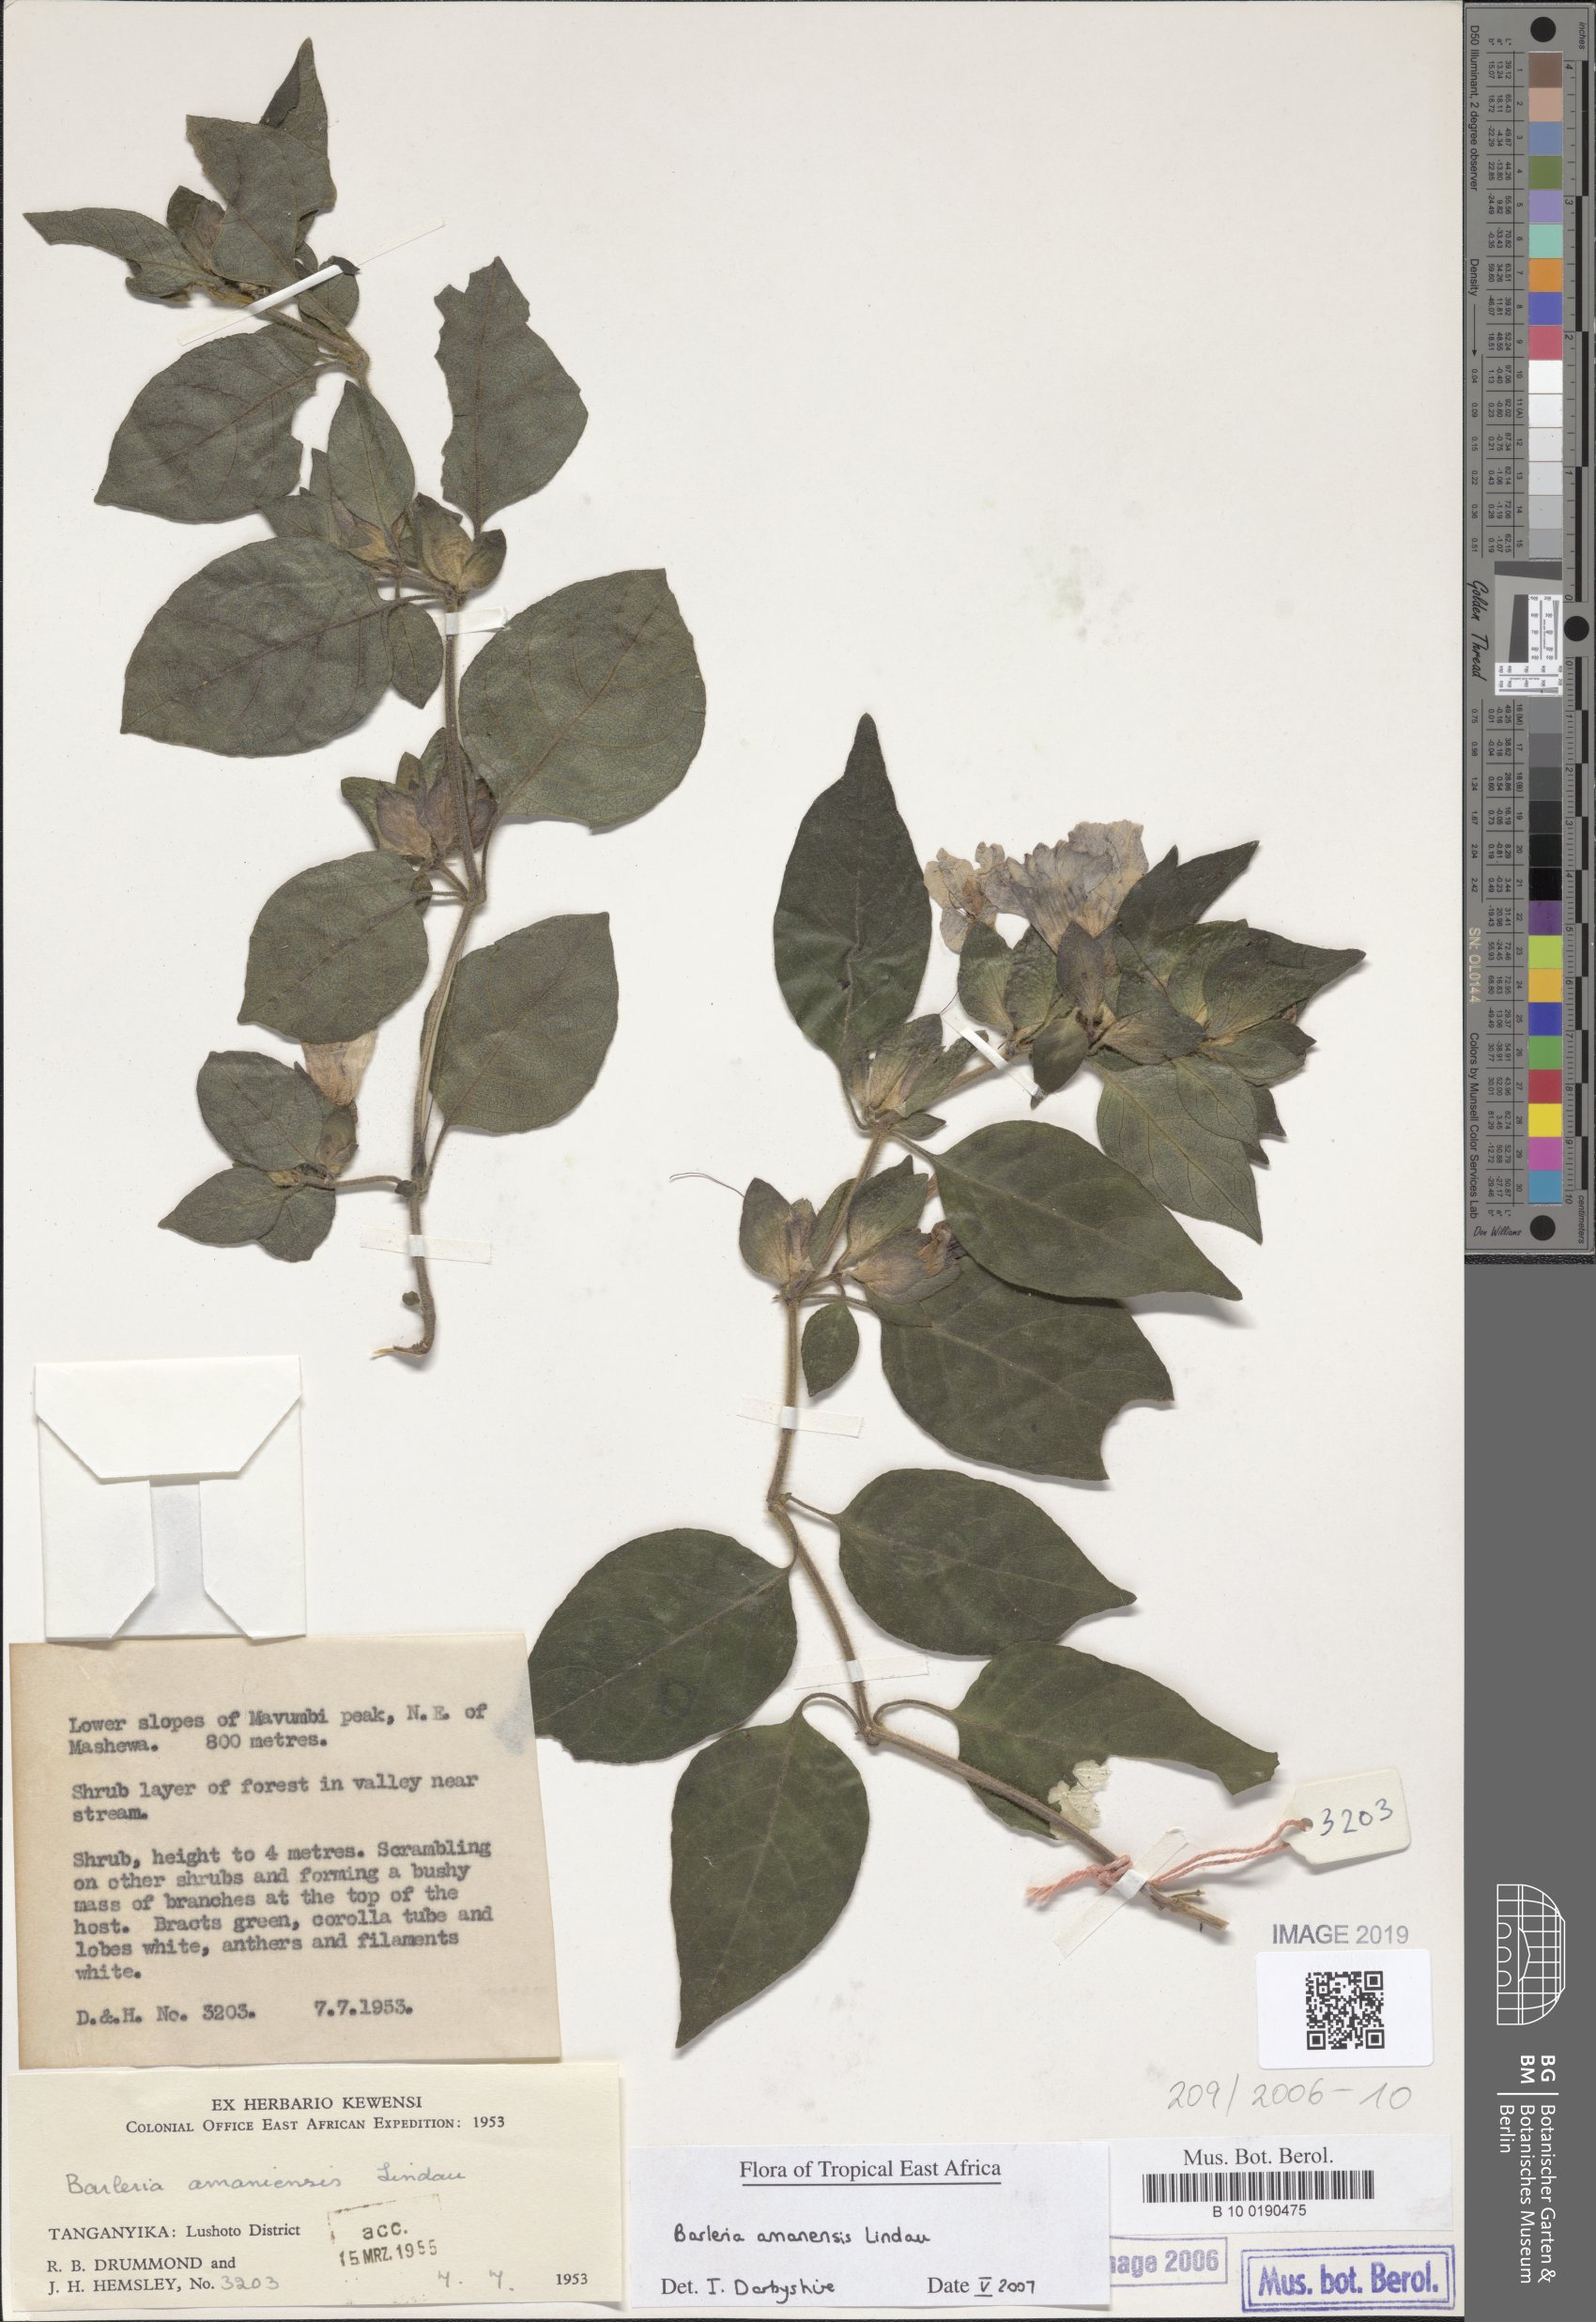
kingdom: Plantae
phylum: Tracheophyta
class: Magnoliopsida
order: Lamiales
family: Acanthaceae
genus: Barleria
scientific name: Barleria amanensis
